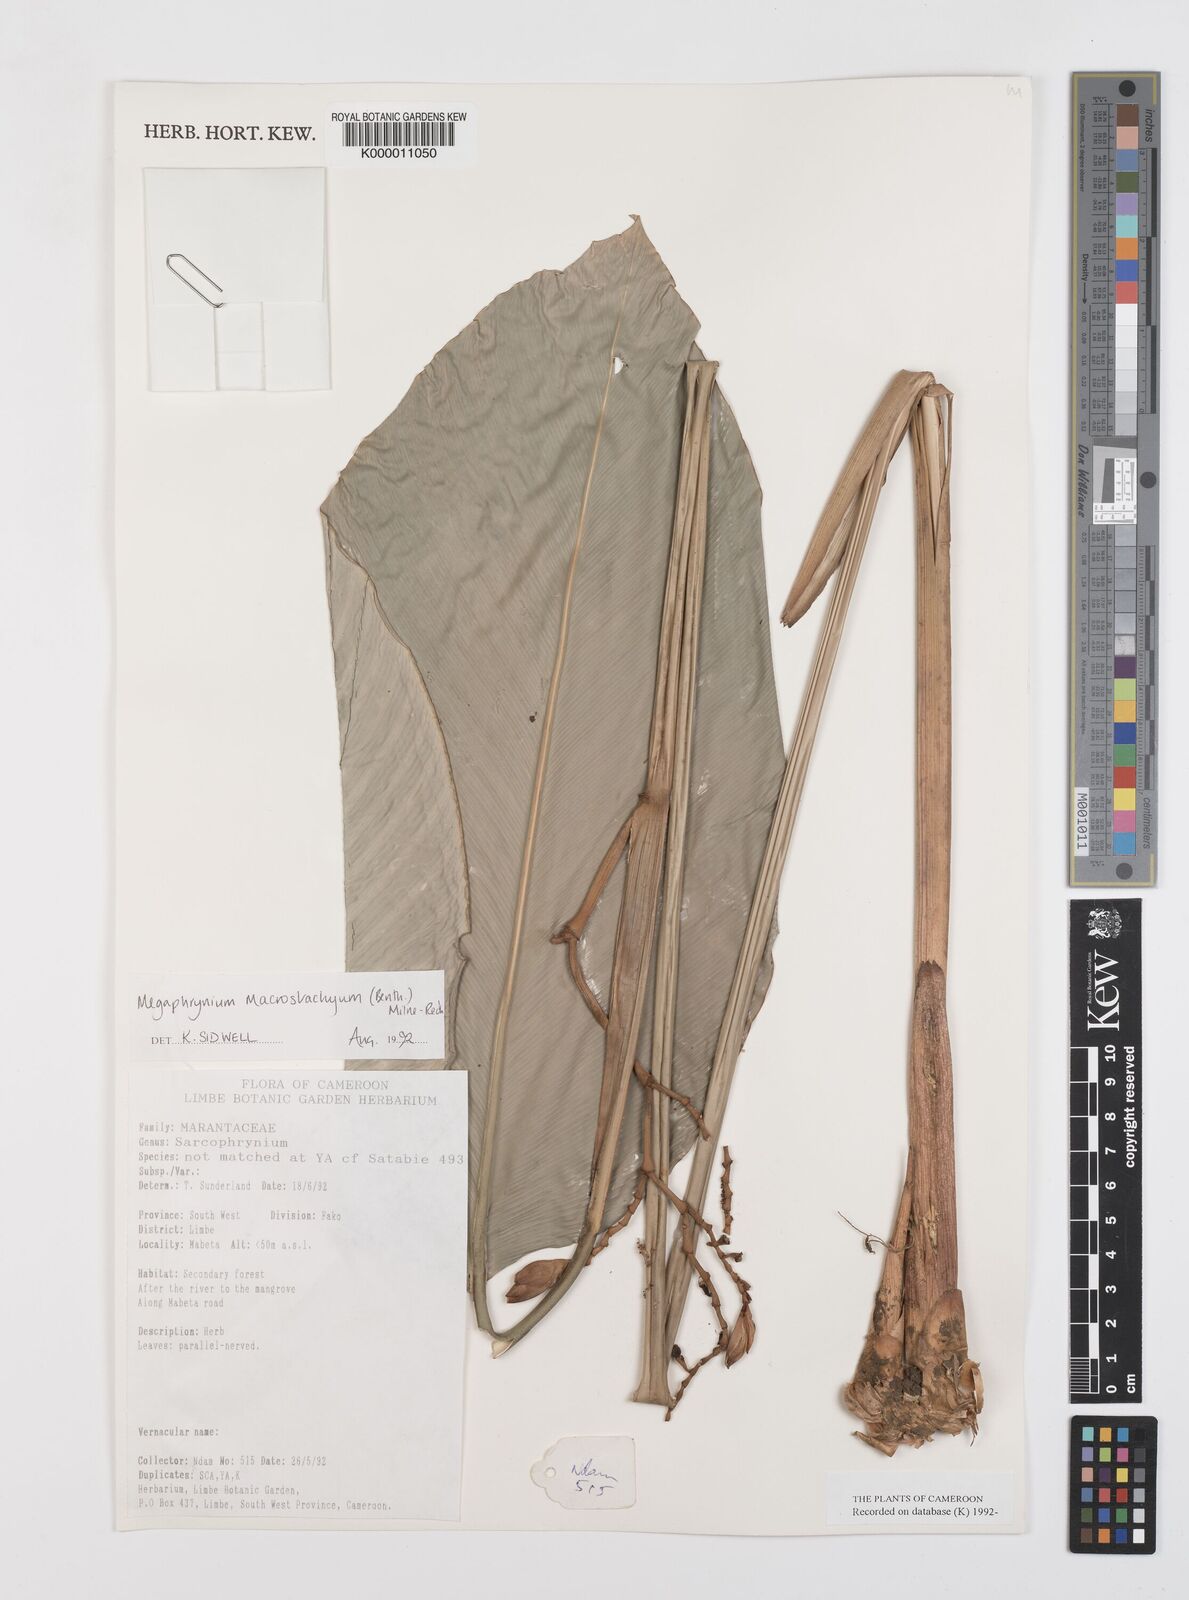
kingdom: Plantae
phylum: Tracheophyta
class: Liliopsida
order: Zingiberales
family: Marantaceae
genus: Megaphrynium
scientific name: Megaphrynium macrostachyum
